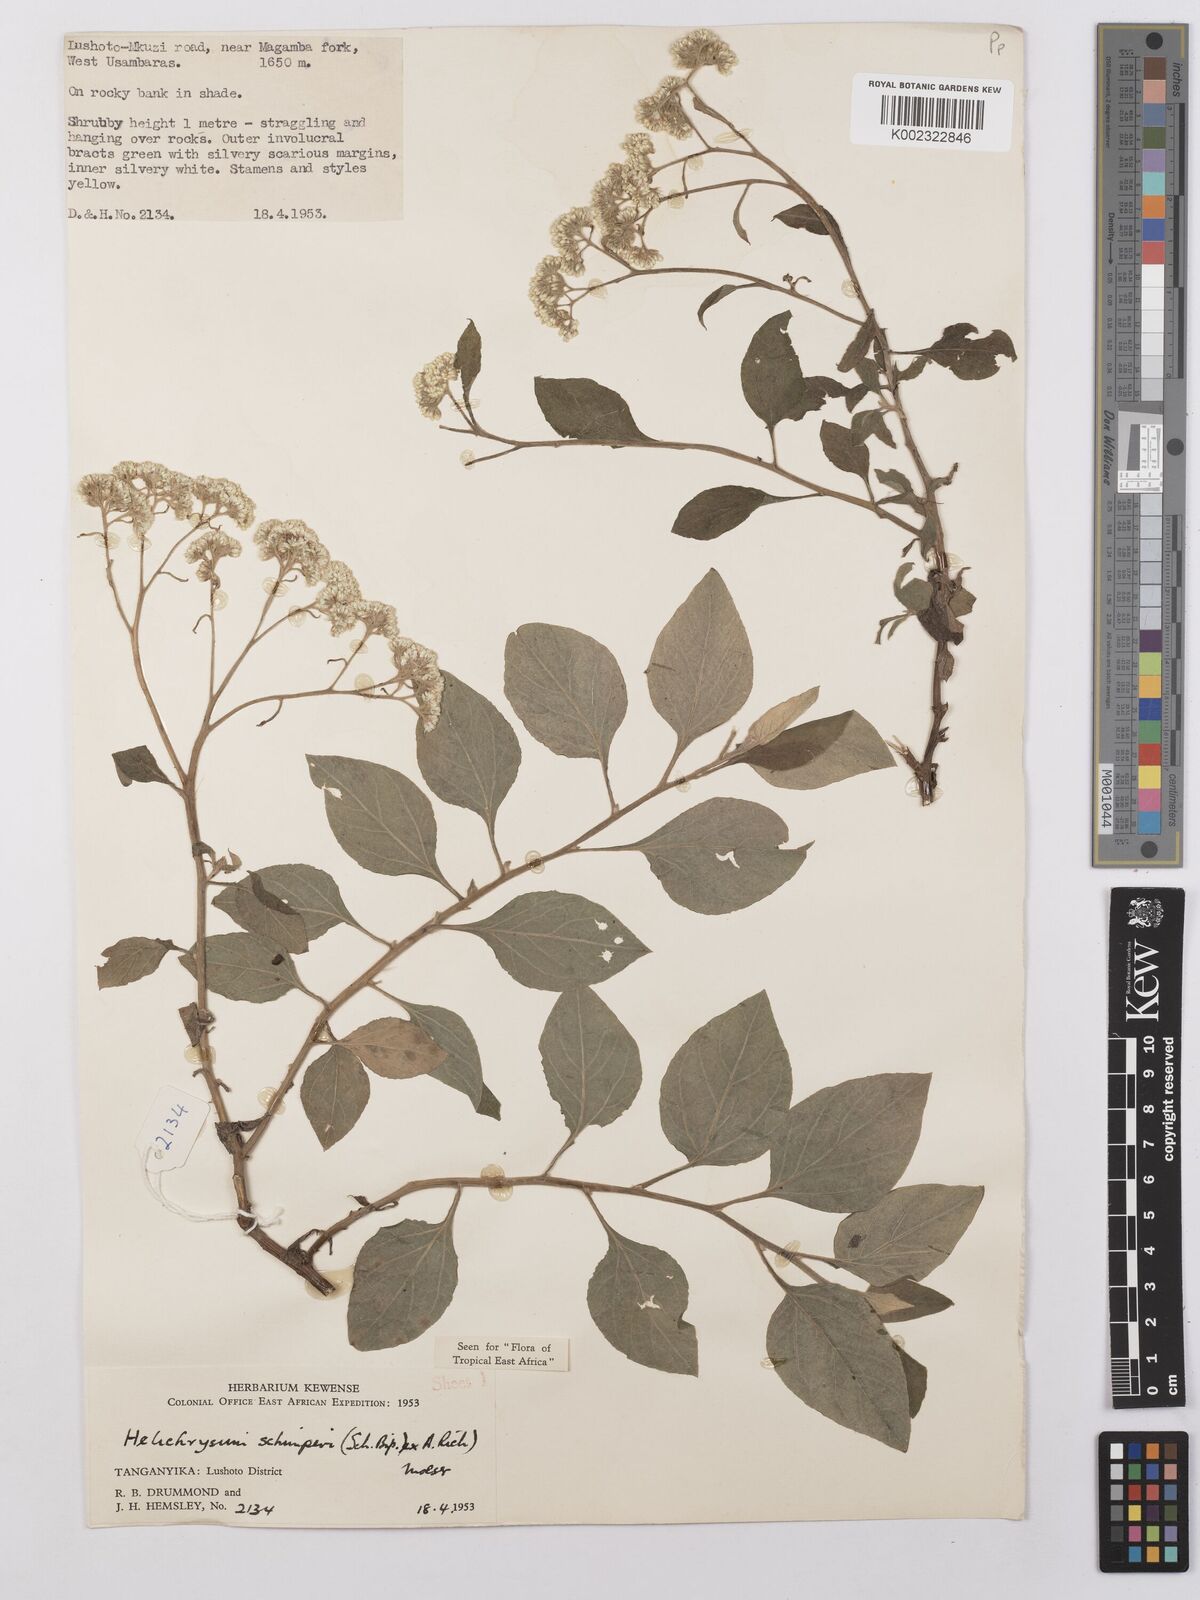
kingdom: Plantae
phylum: Tracheophyta
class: Magnoliopsida
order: Asterales
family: Asteraceae
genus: Helichrysum
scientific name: Helichrysum schimperi
